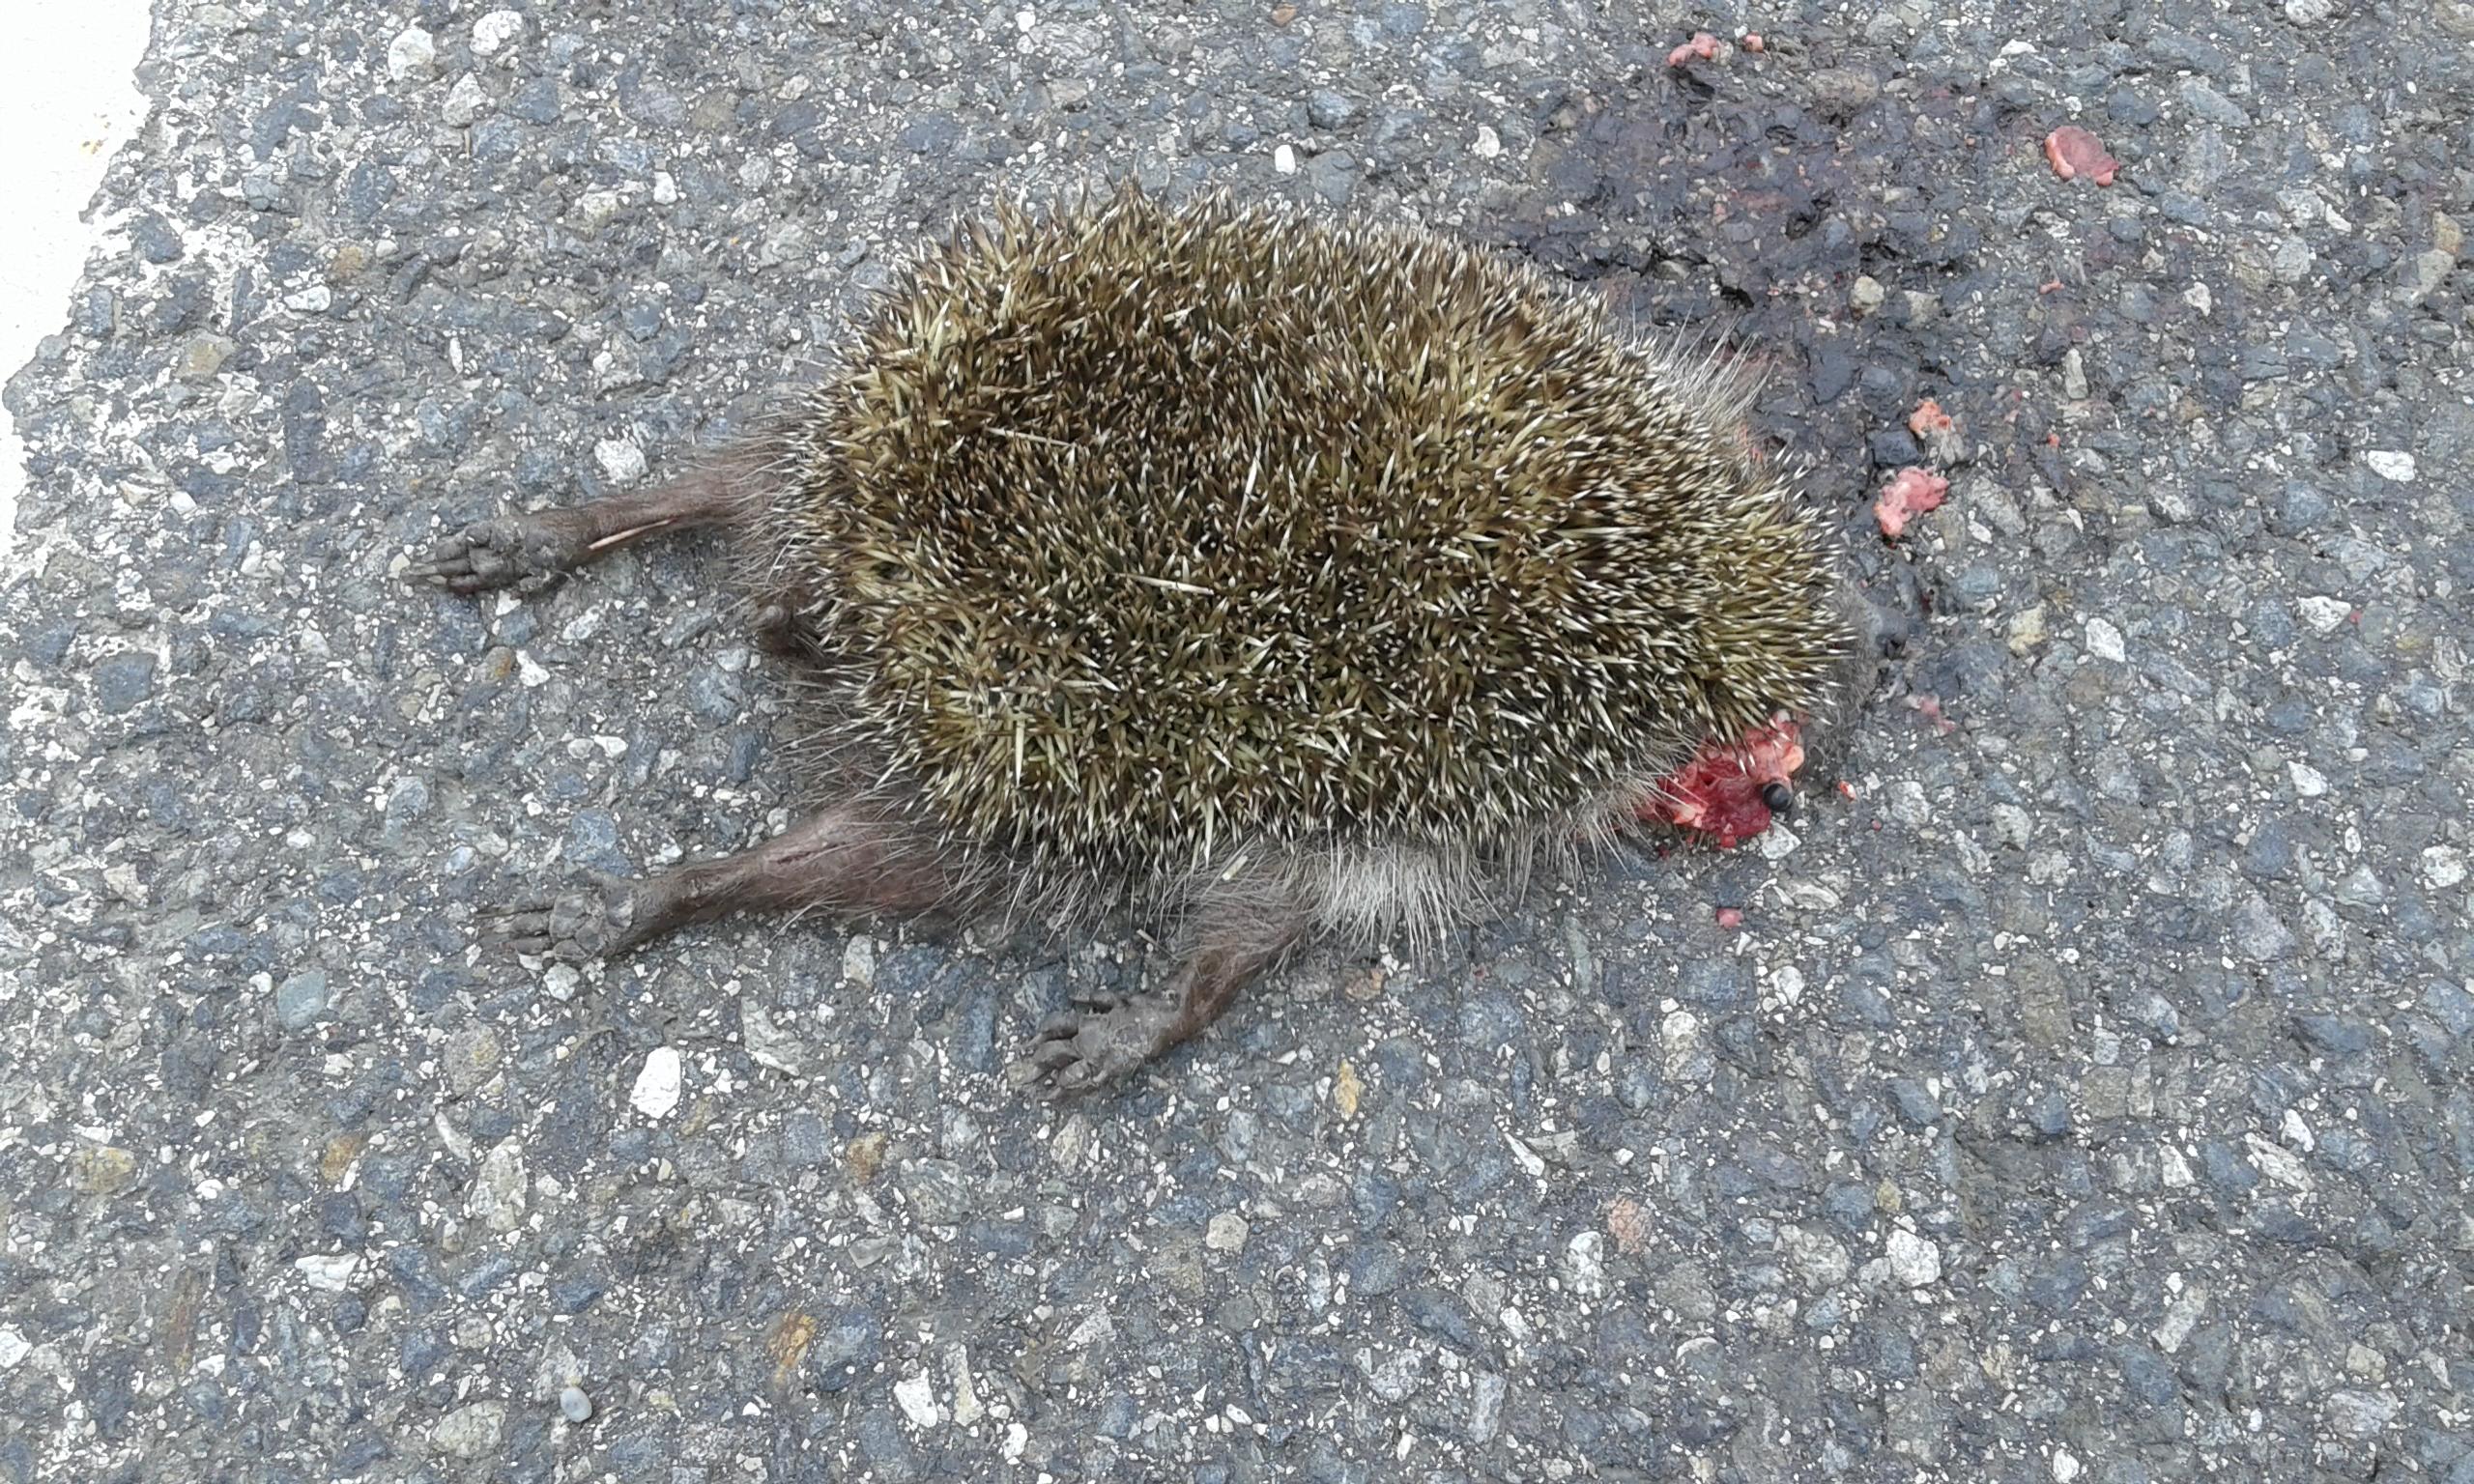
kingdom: Animalia
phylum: Chordata
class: Mammalia
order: Erinaceomorpha
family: Erinaceidae
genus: Erinaceus
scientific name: Erinaceus
